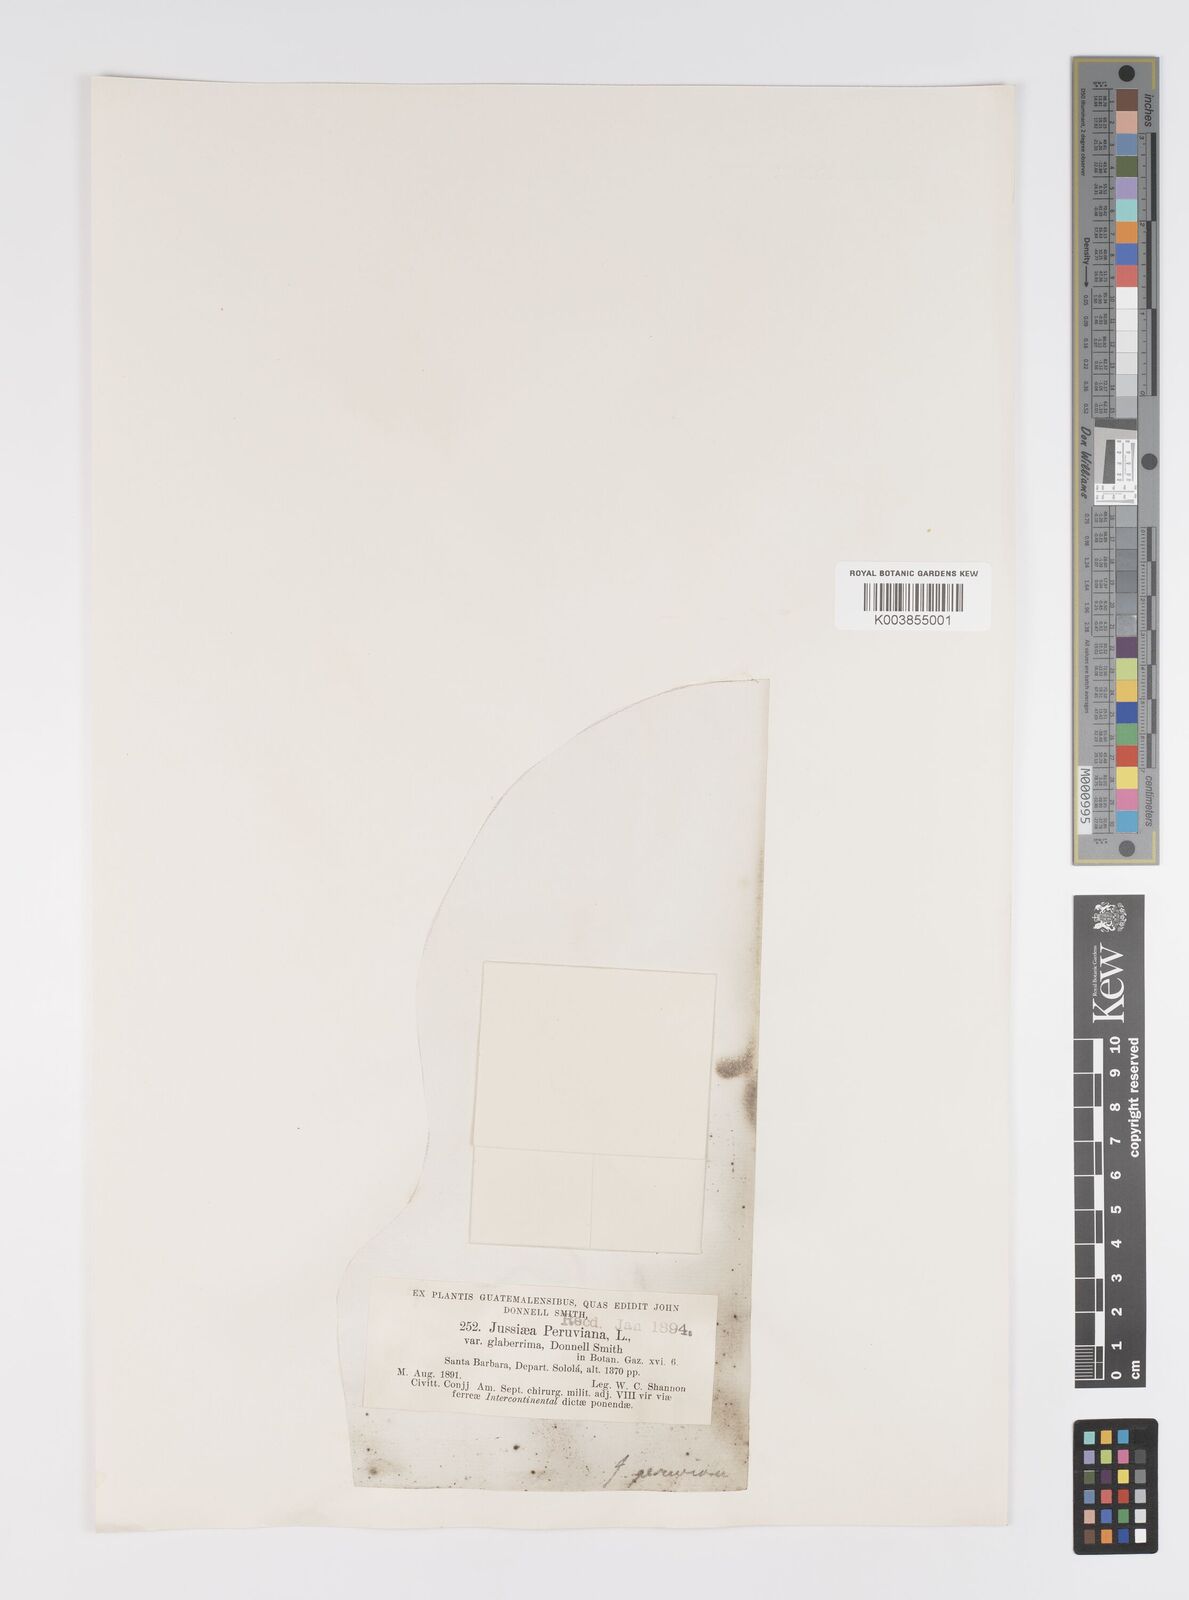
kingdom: Plantae
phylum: Tracheophyta
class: Magnoliopsida
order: Myrtales
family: Onagraceae
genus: Ludwigia
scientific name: Ludwigia peruviana
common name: Peruvian primrose-willow
